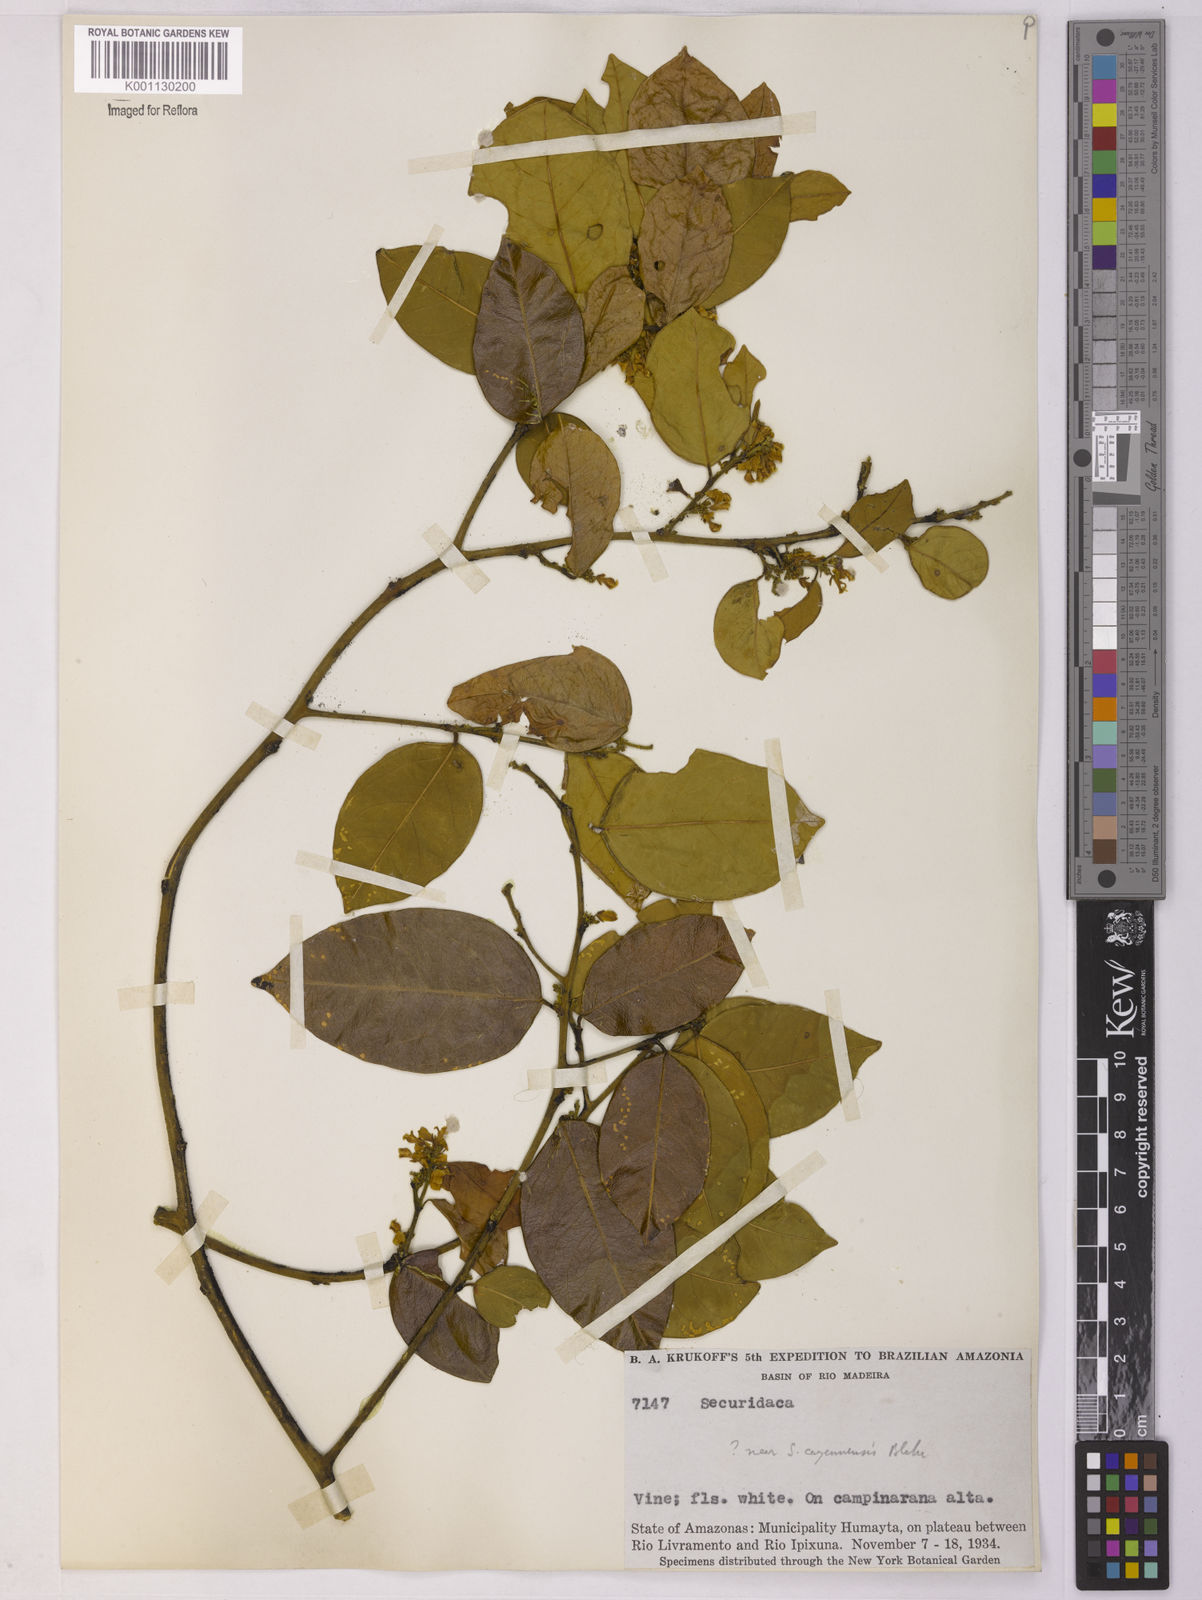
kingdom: Plantae
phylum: Tracheophyta
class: Magnoliopsida
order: Fabales
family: Polygalaceae
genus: Securidaca
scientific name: Securidaca
